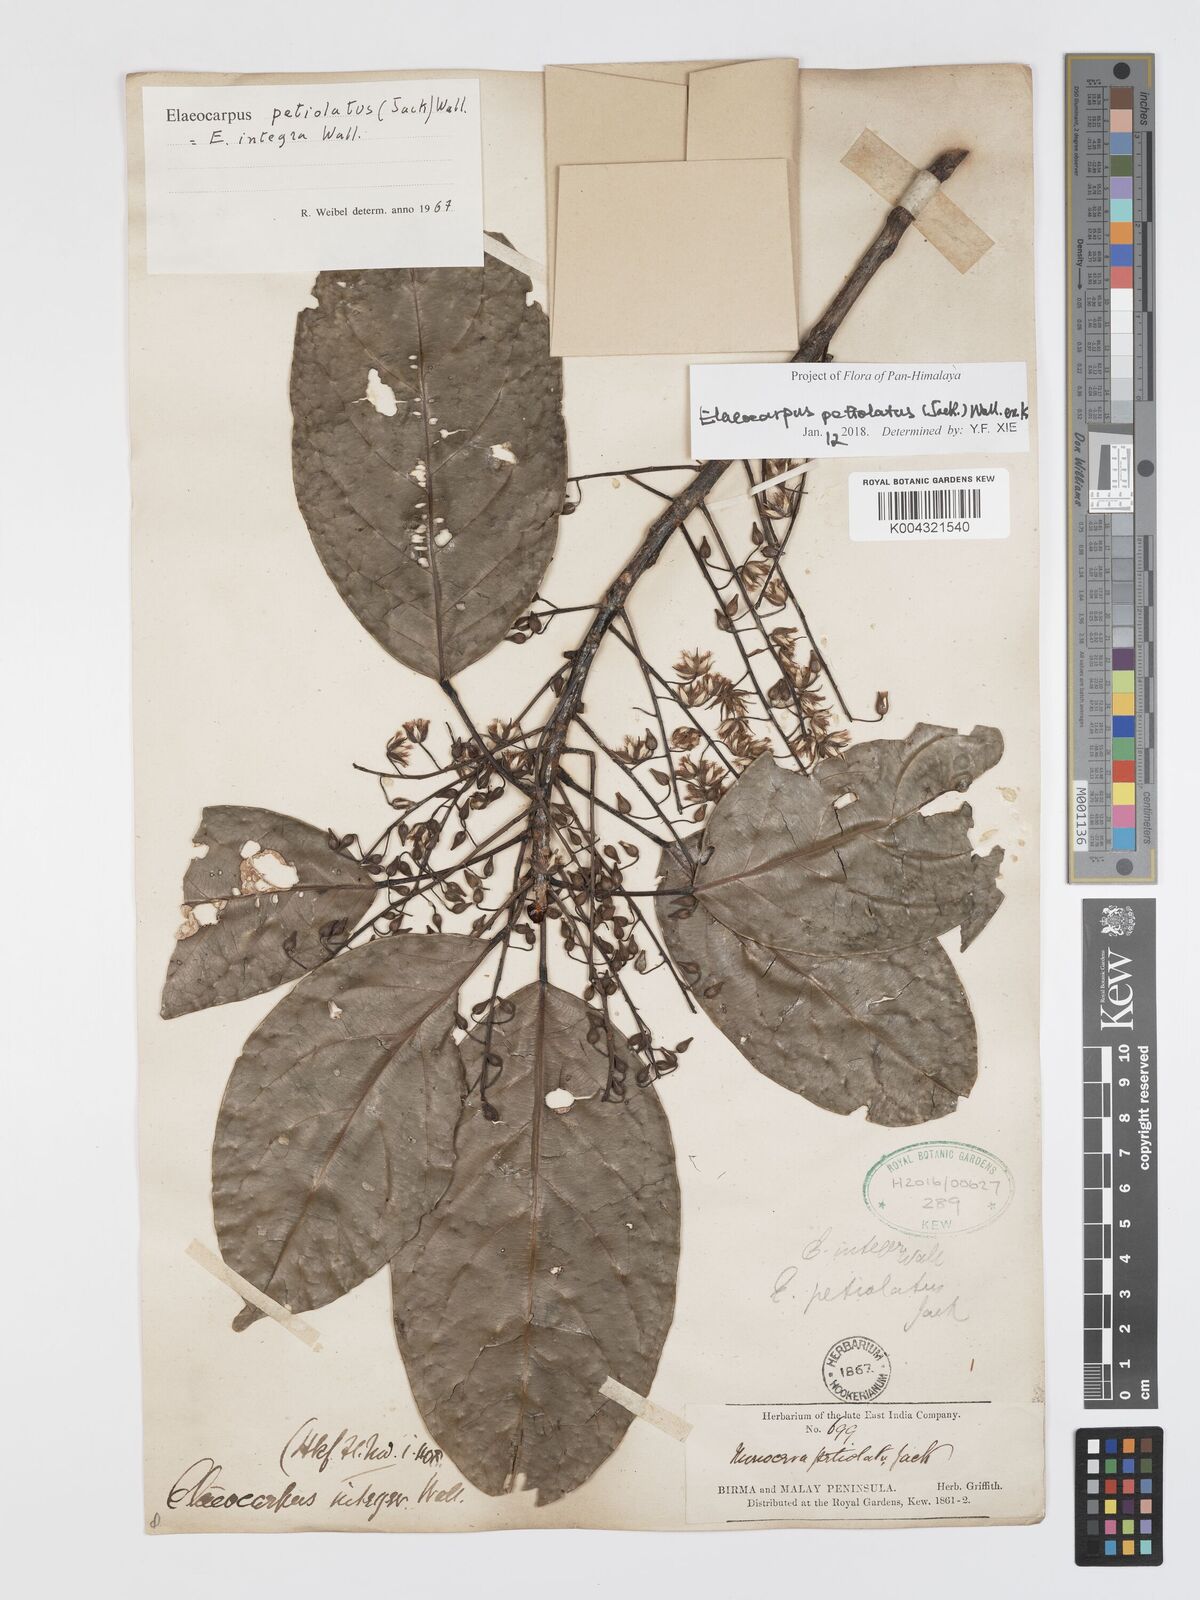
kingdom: Plantae
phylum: Tracheophyta
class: Magnoliopsida
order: Oxalidales
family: Elaeocarpaceae
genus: Elaeocarpus
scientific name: Elaeocarpus petiolatus
